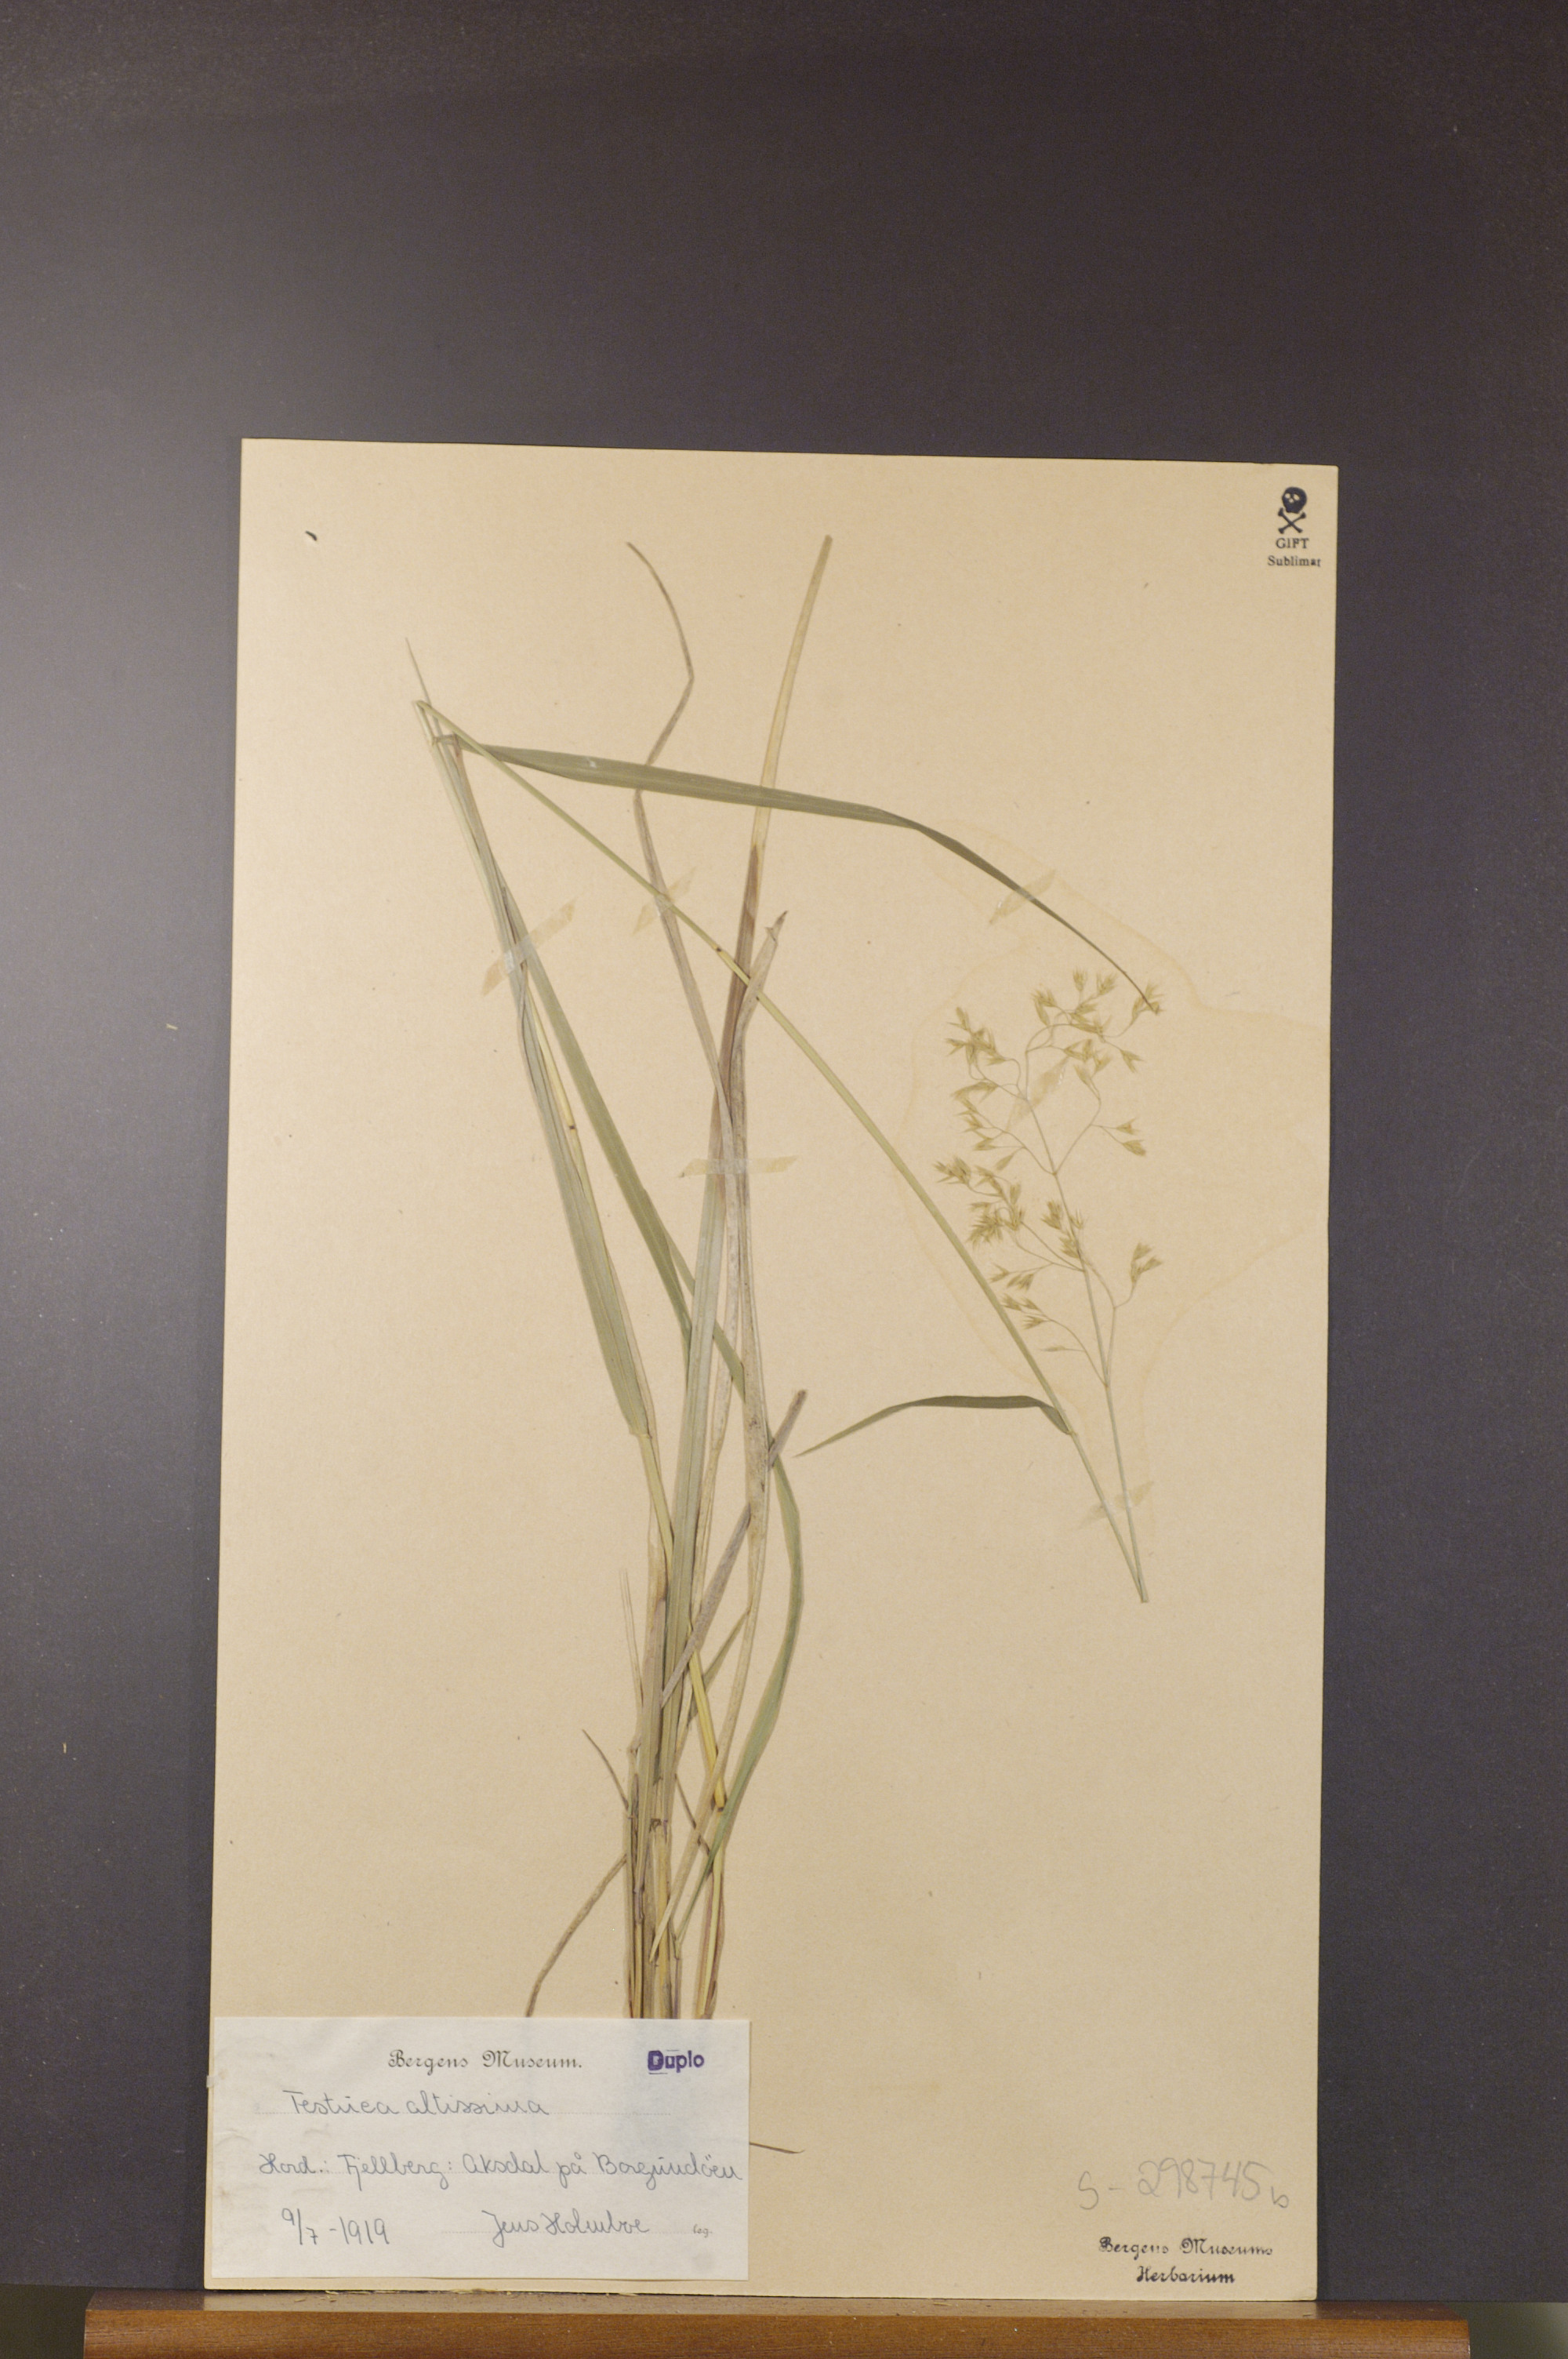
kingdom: Plantae
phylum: Tracheophyta
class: Liliopsida
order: Poales
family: Poaceae
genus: Festuca
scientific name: Festuca altissima
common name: Wood fescue
